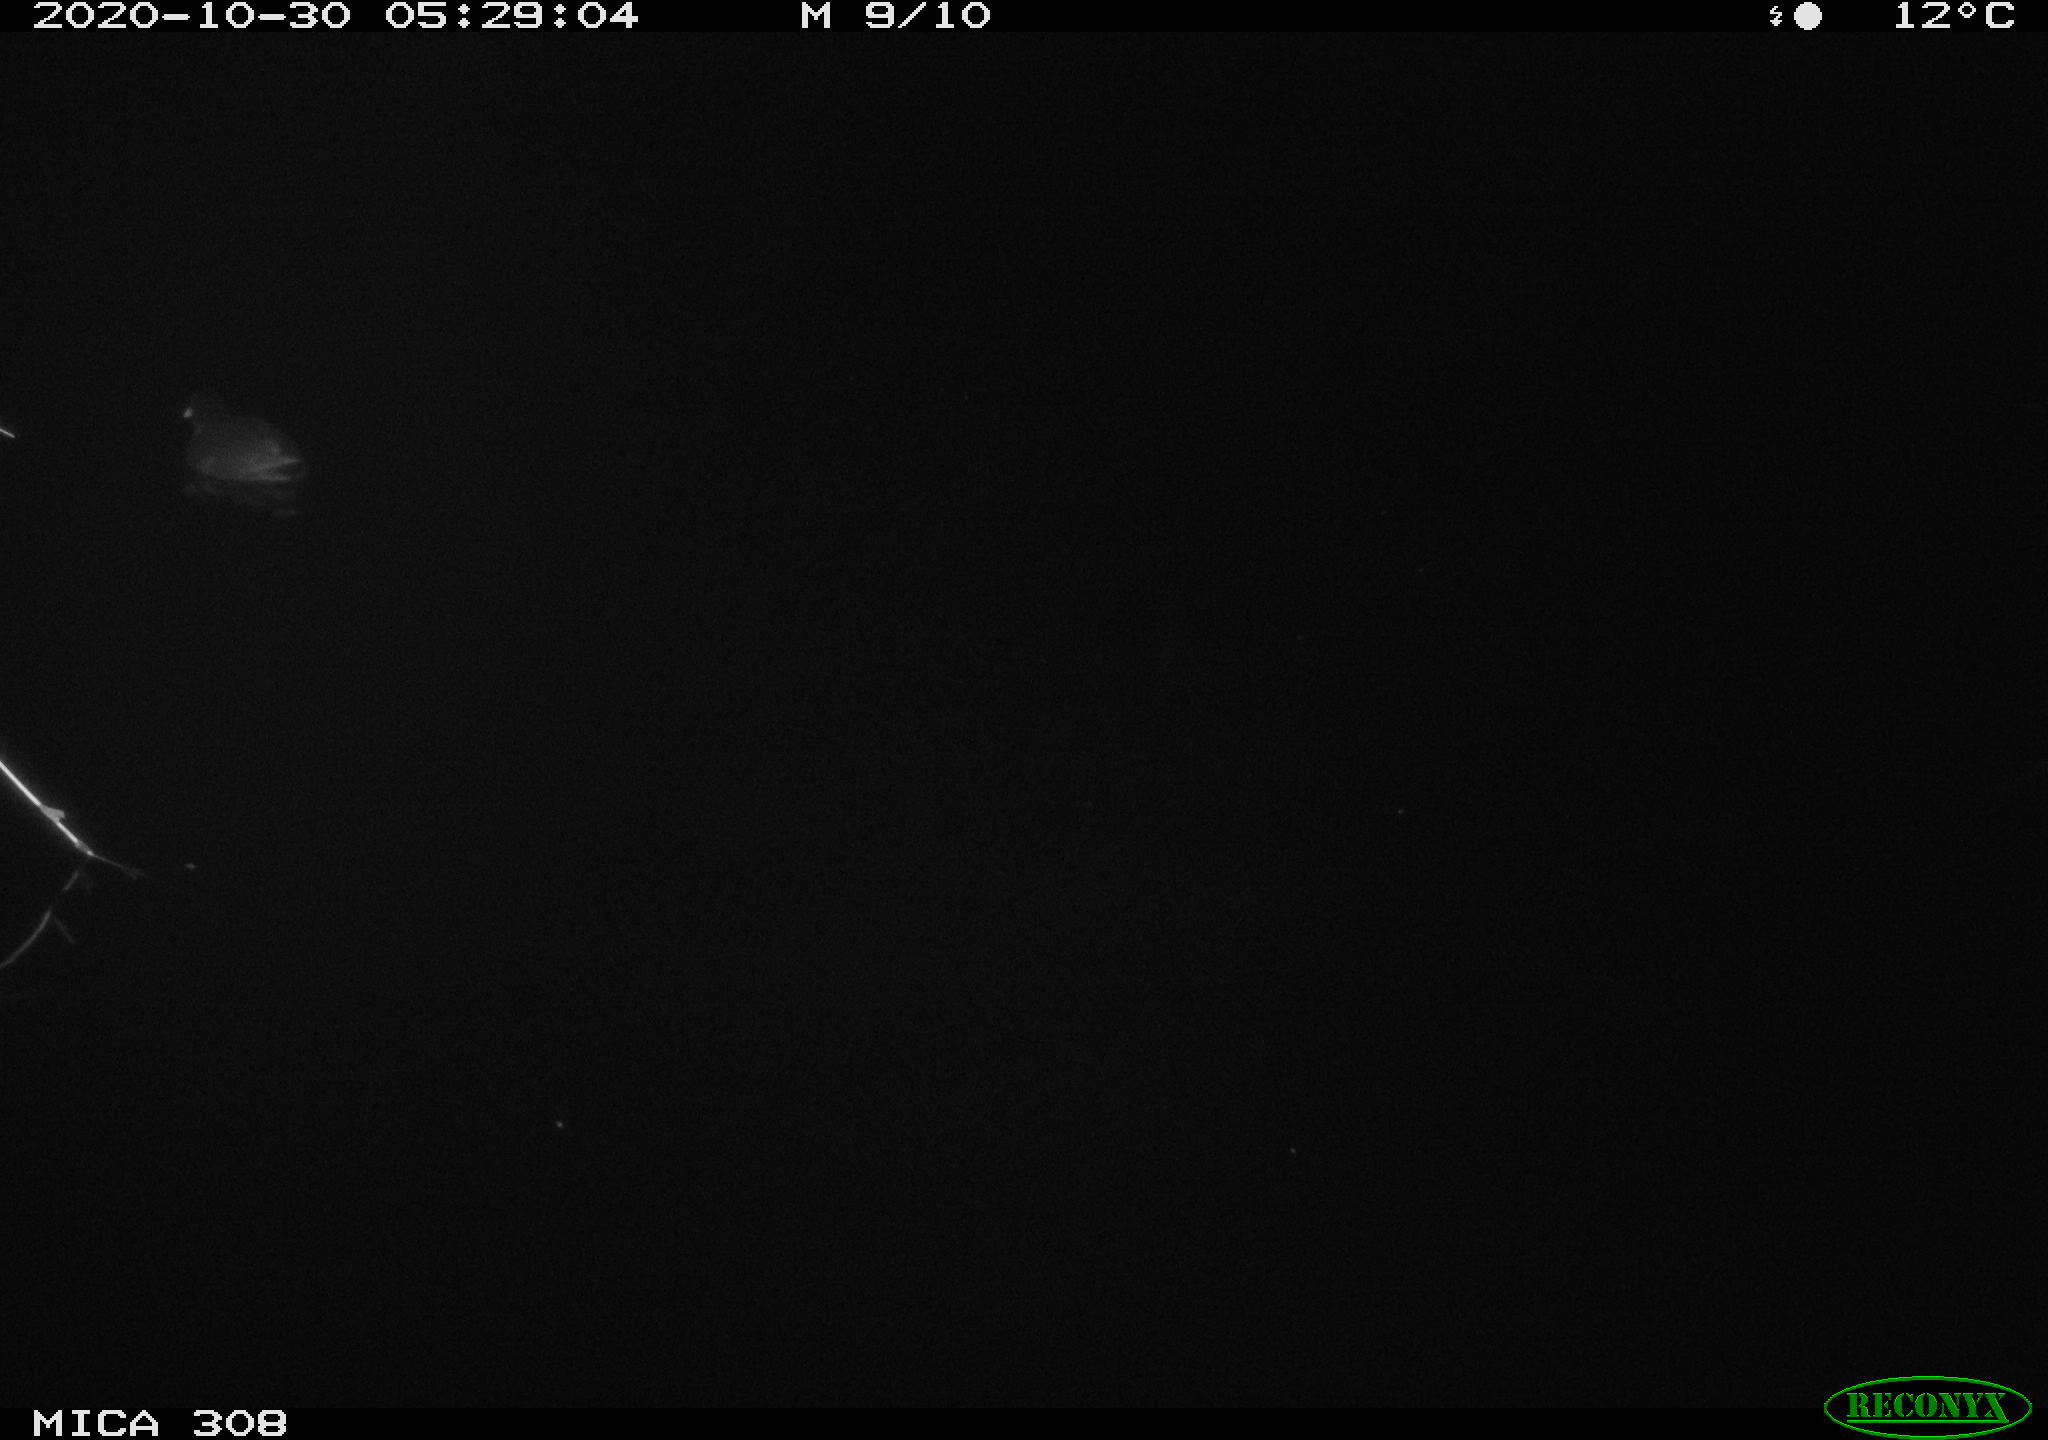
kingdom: Animalia
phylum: Chordata
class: Aves
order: Gruiformes
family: Rallidae
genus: Gallinula
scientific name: Gallinula chloropus
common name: Common moorhen
